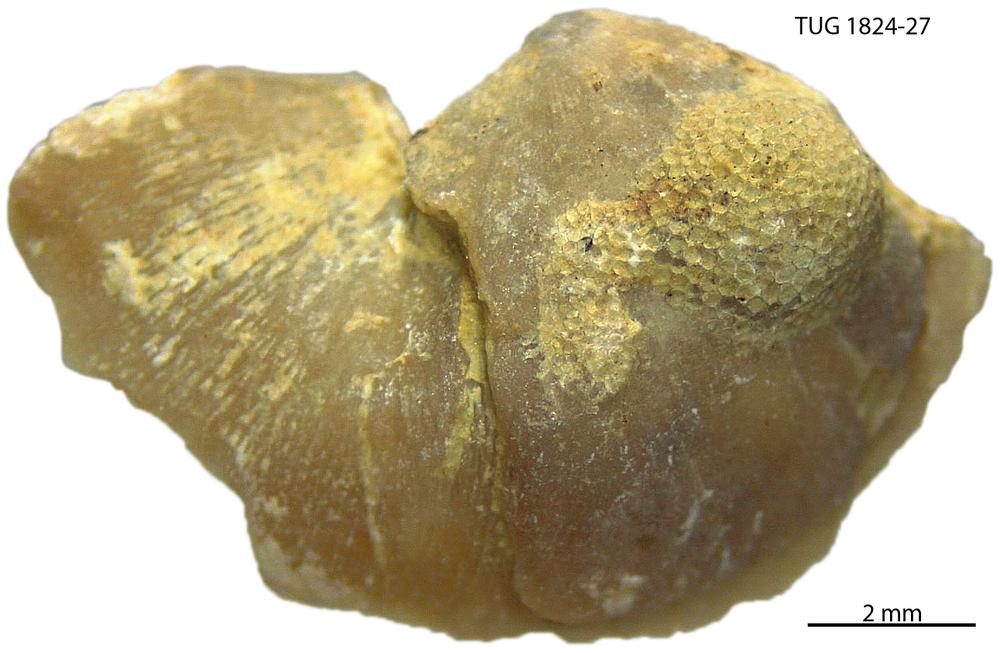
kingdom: Animalia
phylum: Brachiopoda
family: Sowerbyellidae
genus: Sowerbyella
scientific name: Sowerbyella
